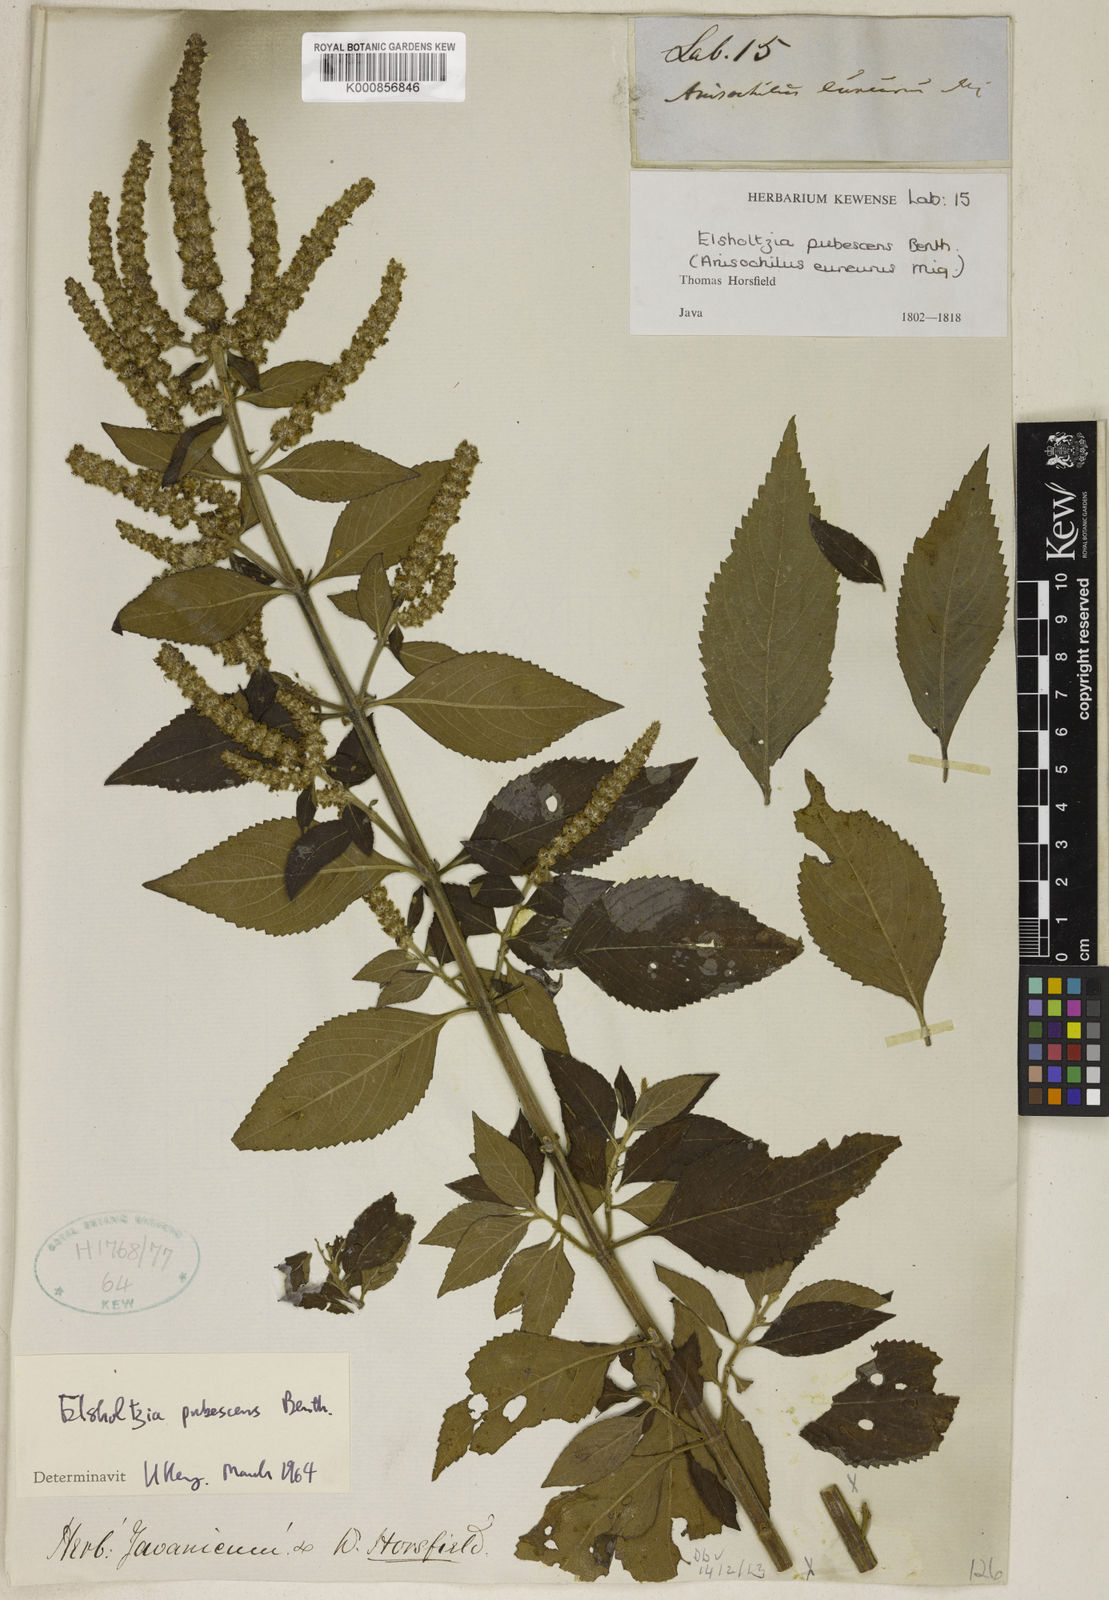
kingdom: Plantae
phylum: Tracheophyta
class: Magnoliopsida
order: Lamiales
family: Lamiaceae
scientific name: Lamiaceae
